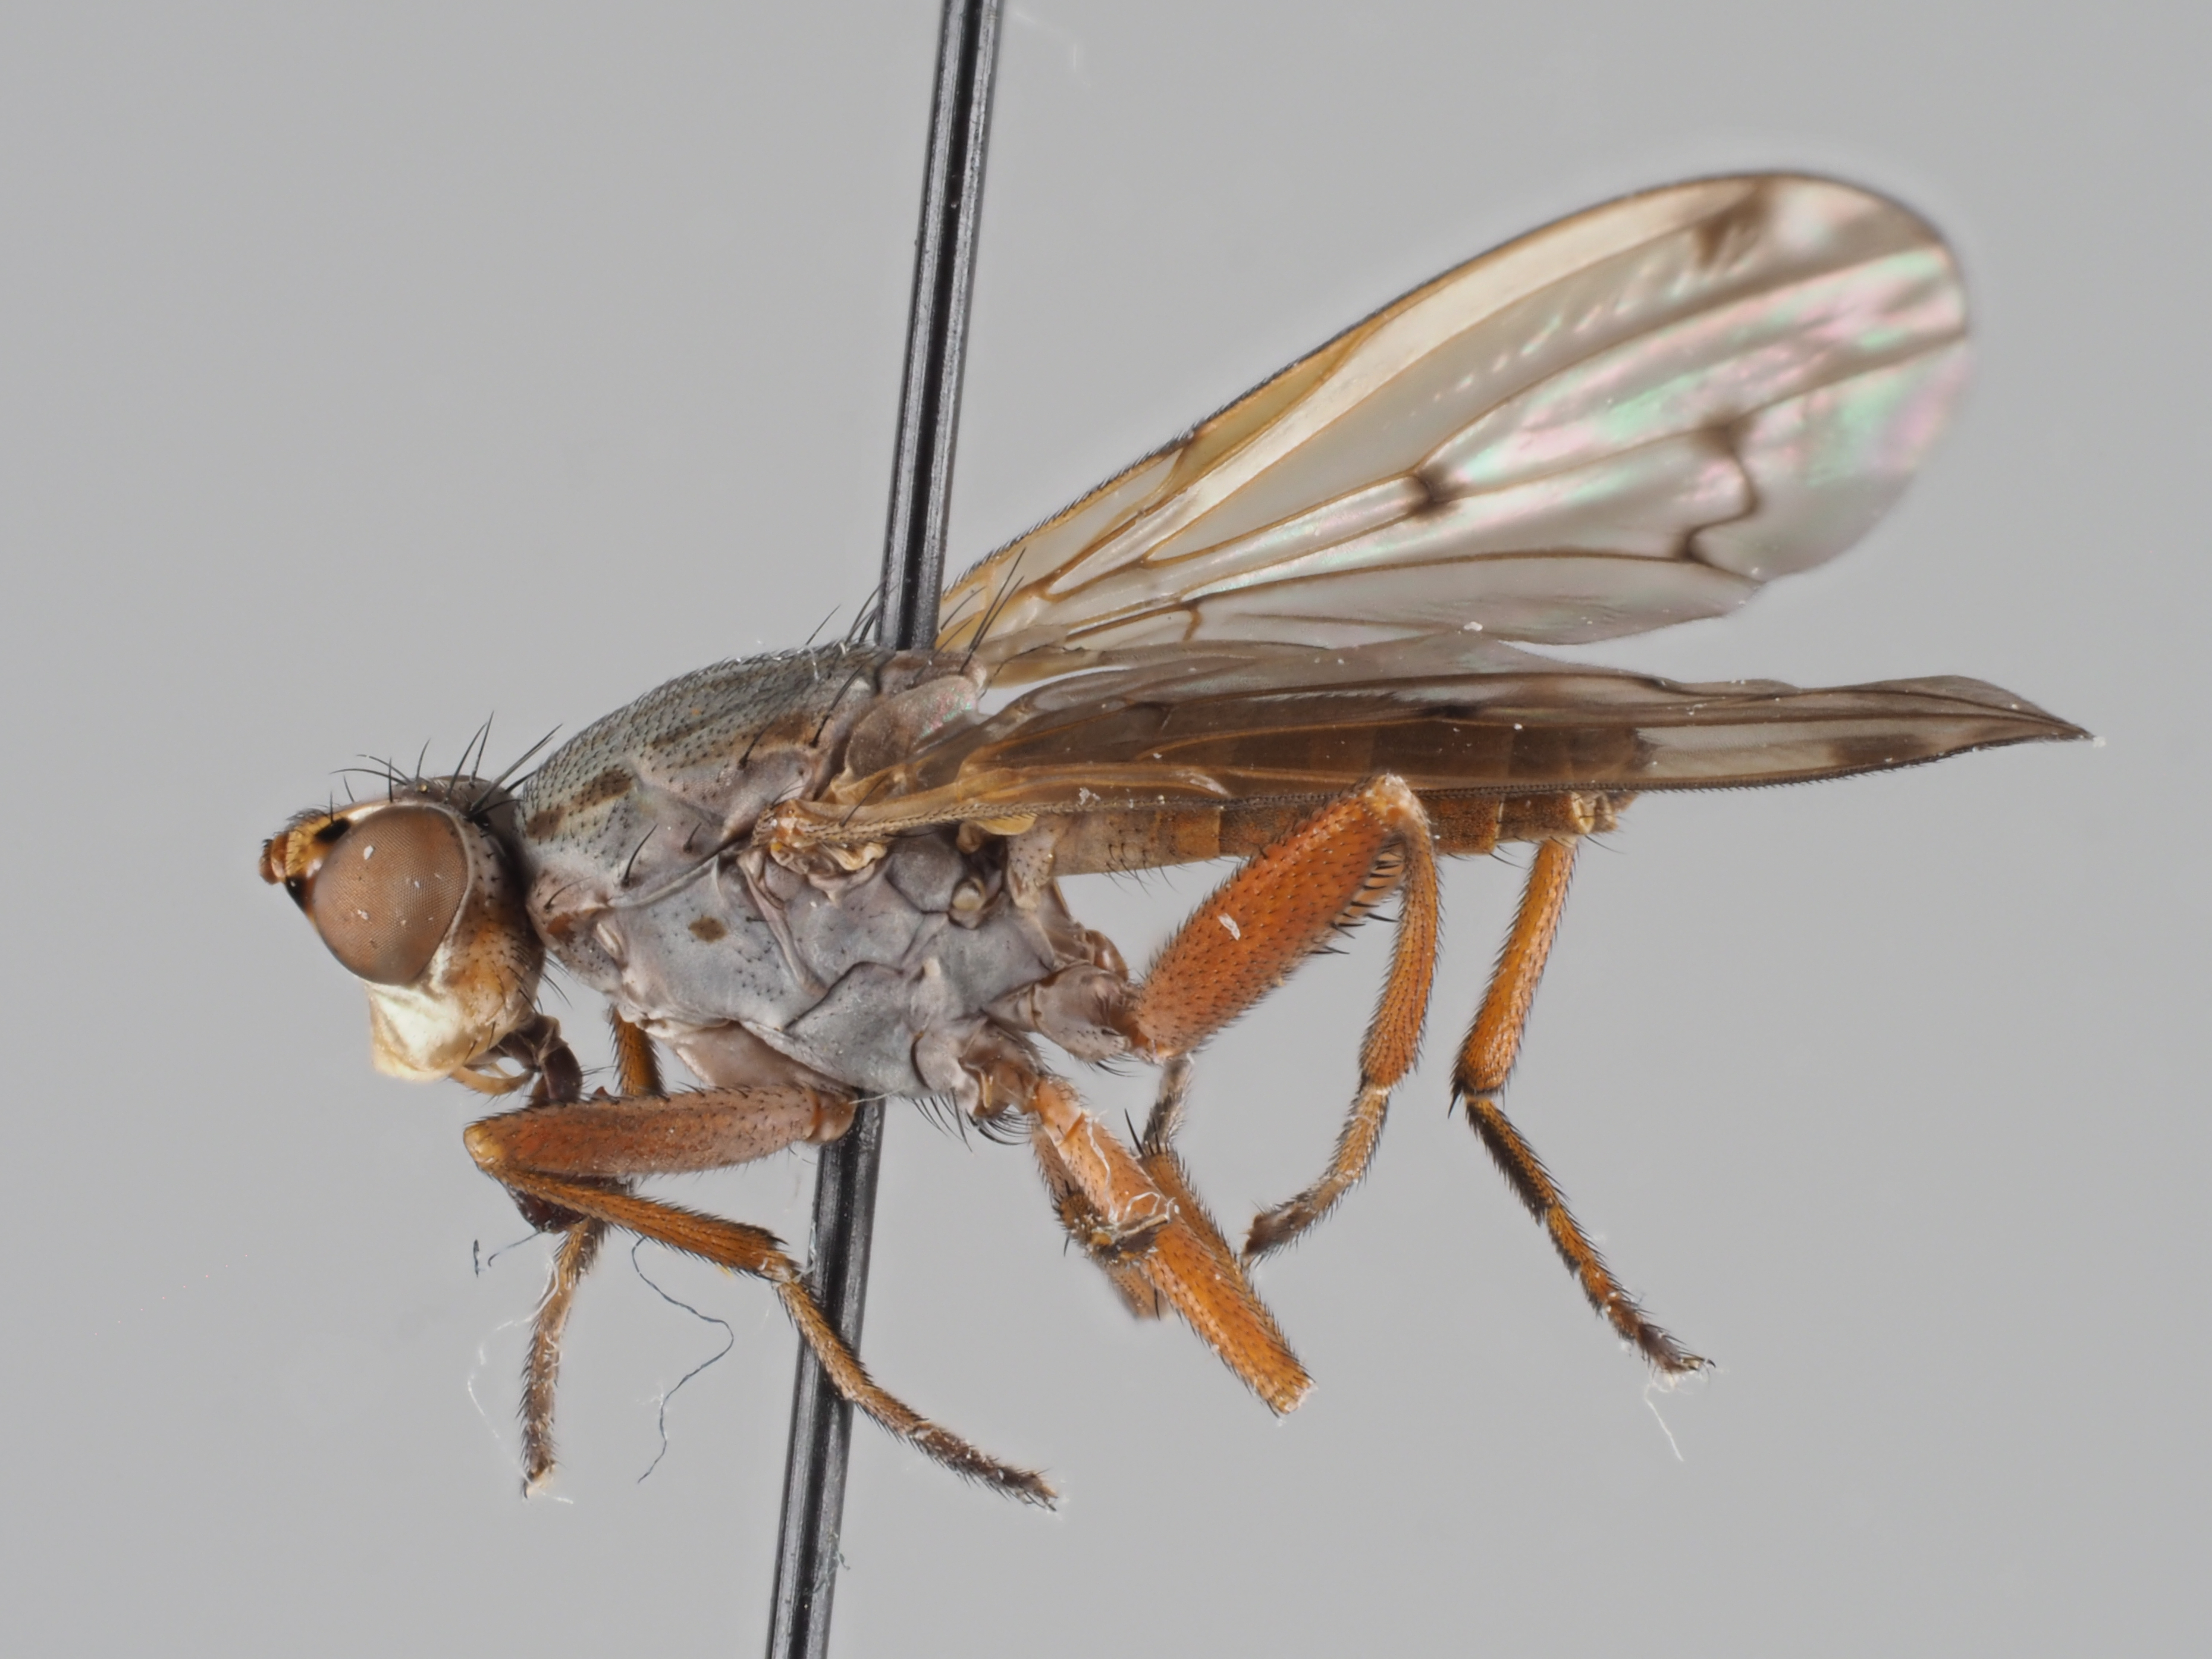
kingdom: Animalia
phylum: Arthropoda
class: Insecta
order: Diptera
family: Sciomyzidae
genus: Elgiva
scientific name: Elgiva cucularia
